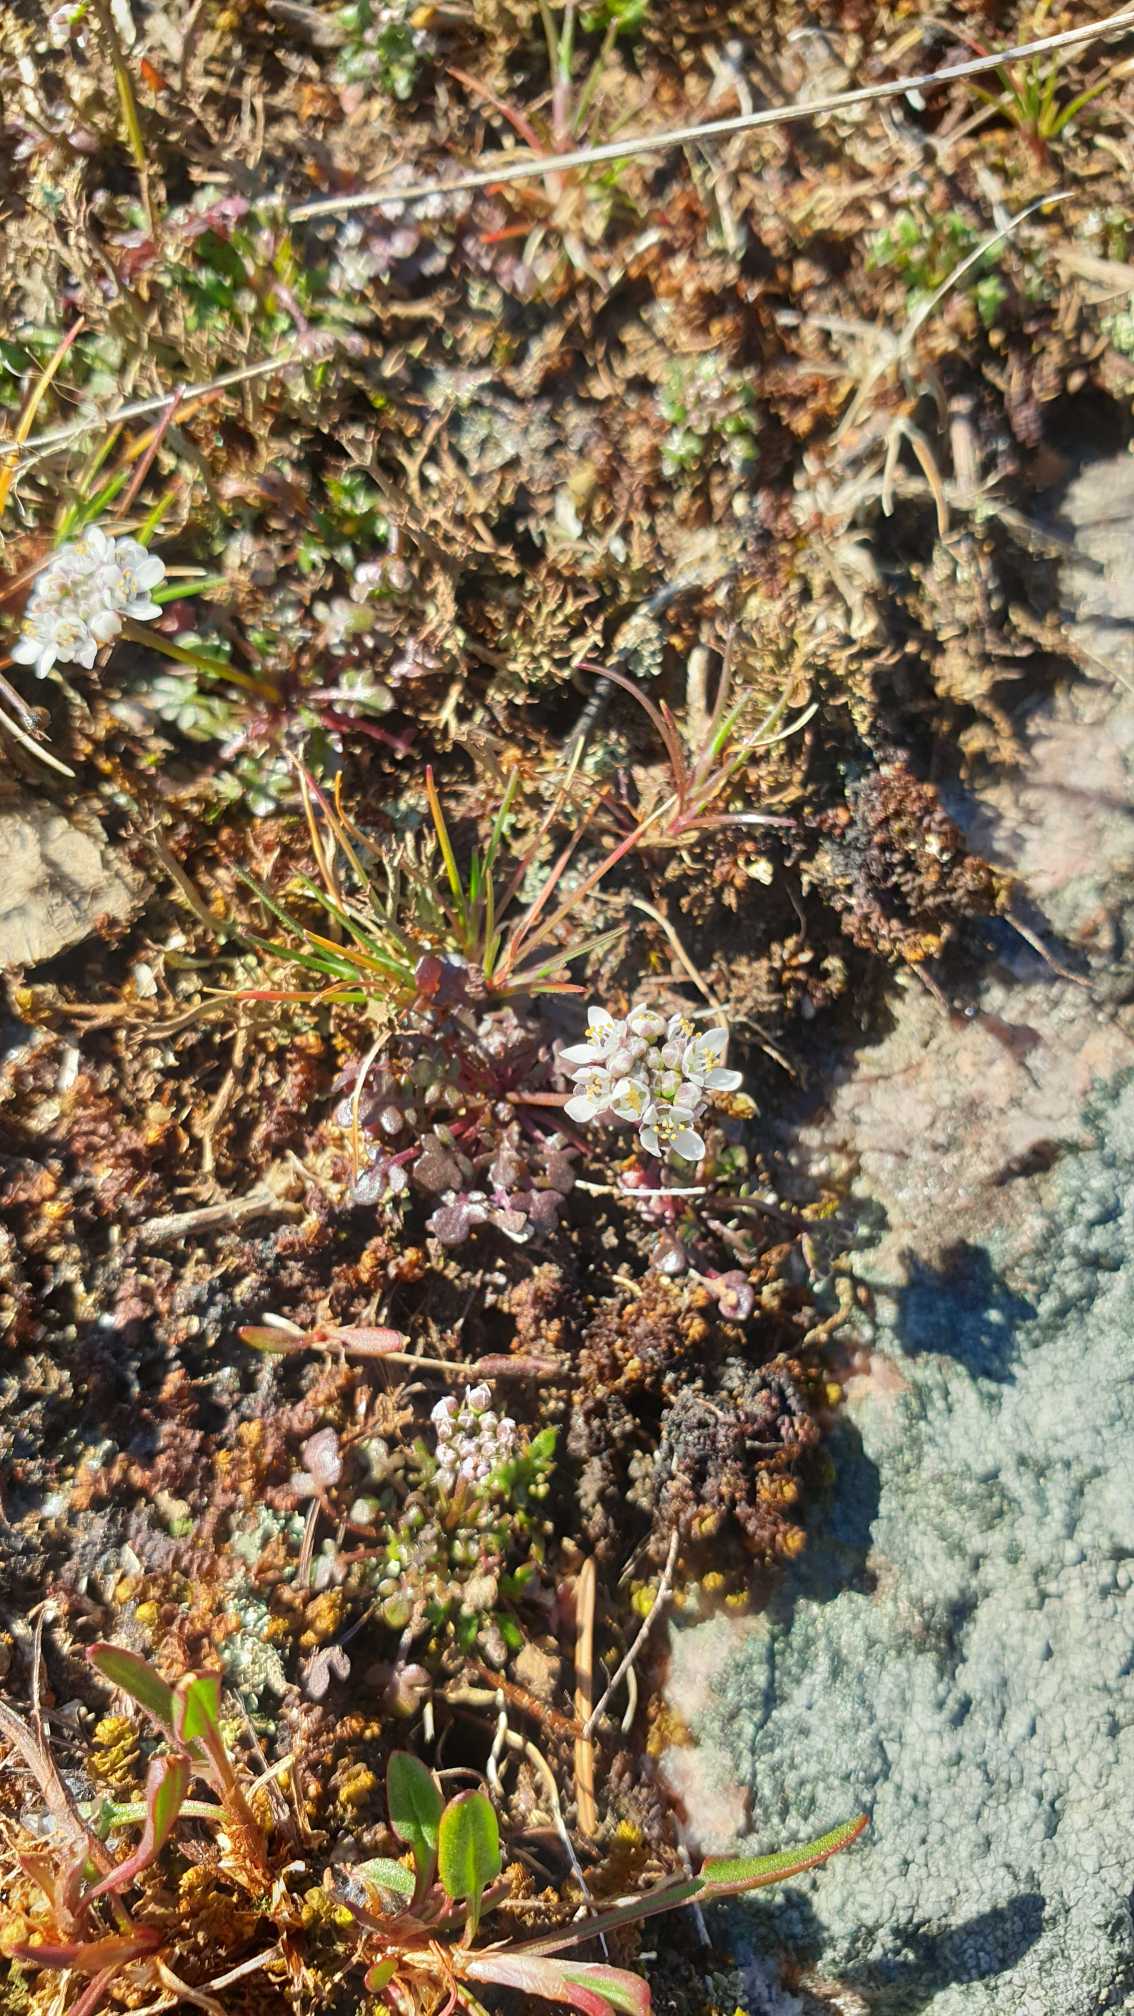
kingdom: Plantae
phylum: Tracheophyta
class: Magnoliopsida
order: Brassicales
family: Brassicaceae
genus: Teesdalia
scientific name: Teesdalia nudicaulis
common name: Flipkrave
